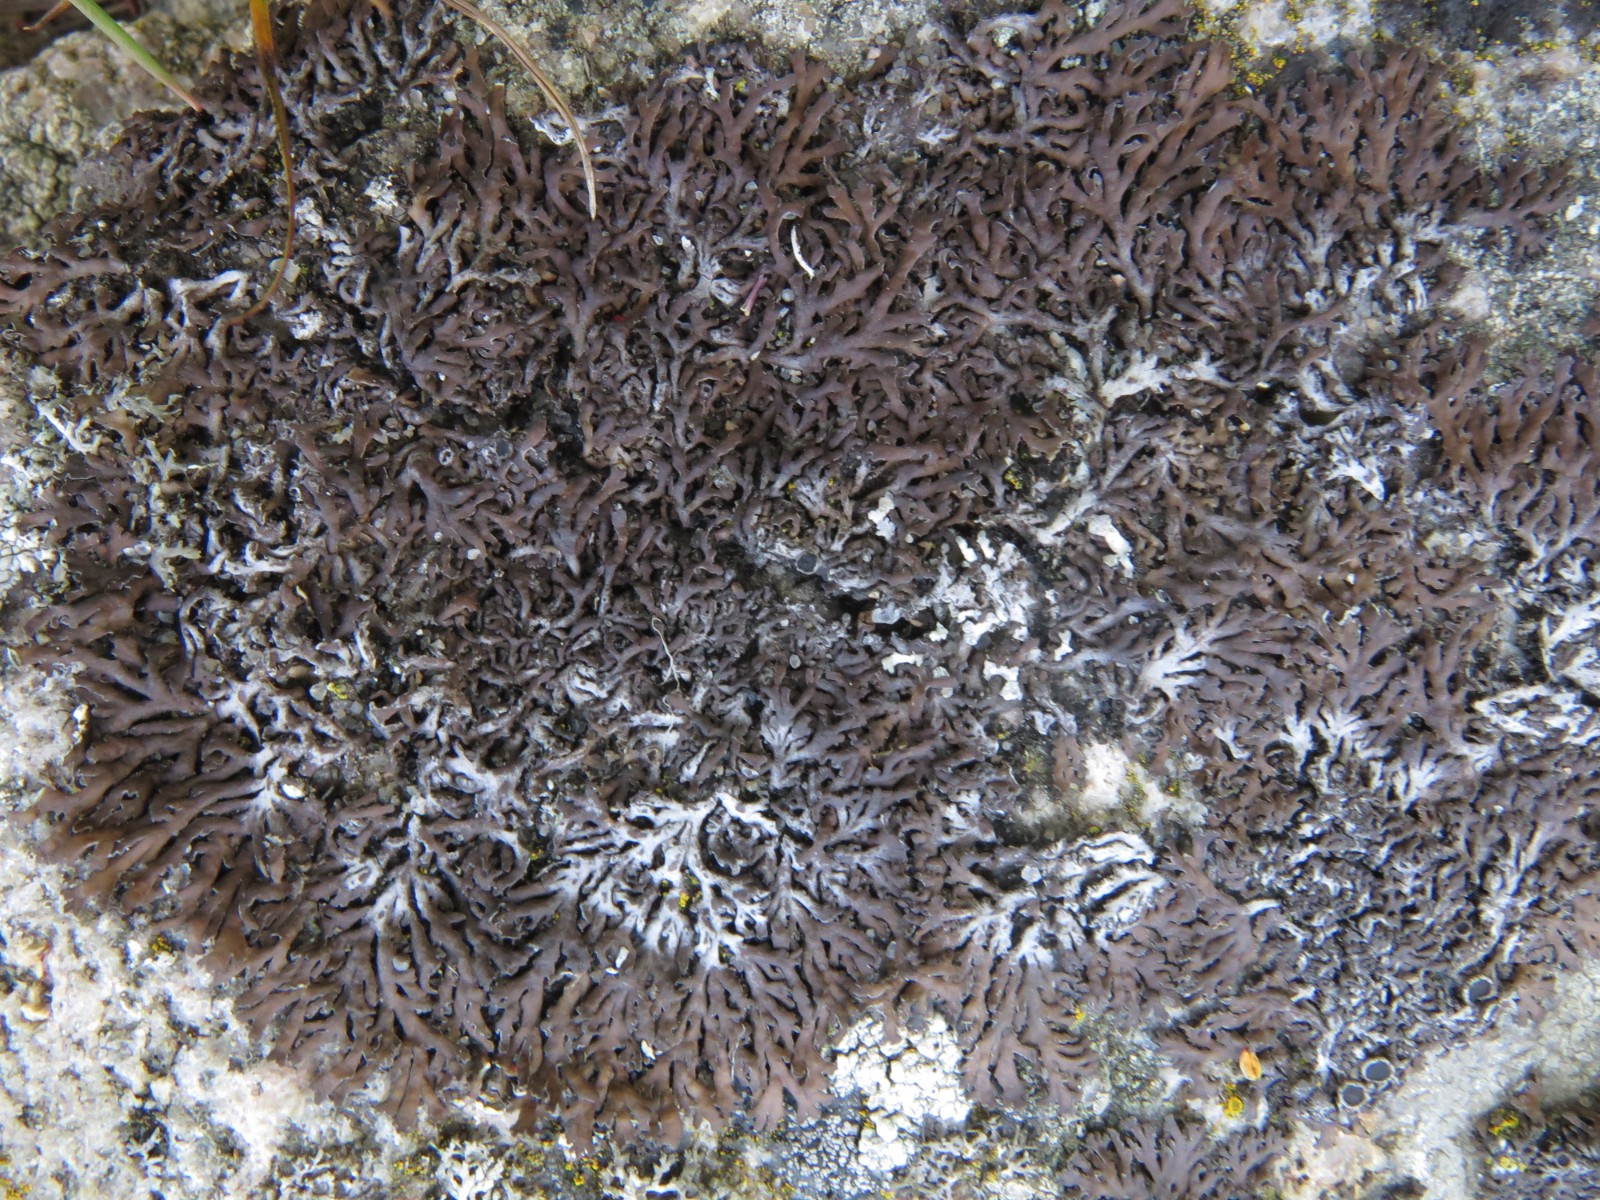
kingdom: Fungi
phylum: Ascomycota
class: Lecanoromycetes
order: Caliciales
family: Physciaceae
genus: Kurokawia
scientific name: Kurokawia runcinata
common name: brun frynselav
